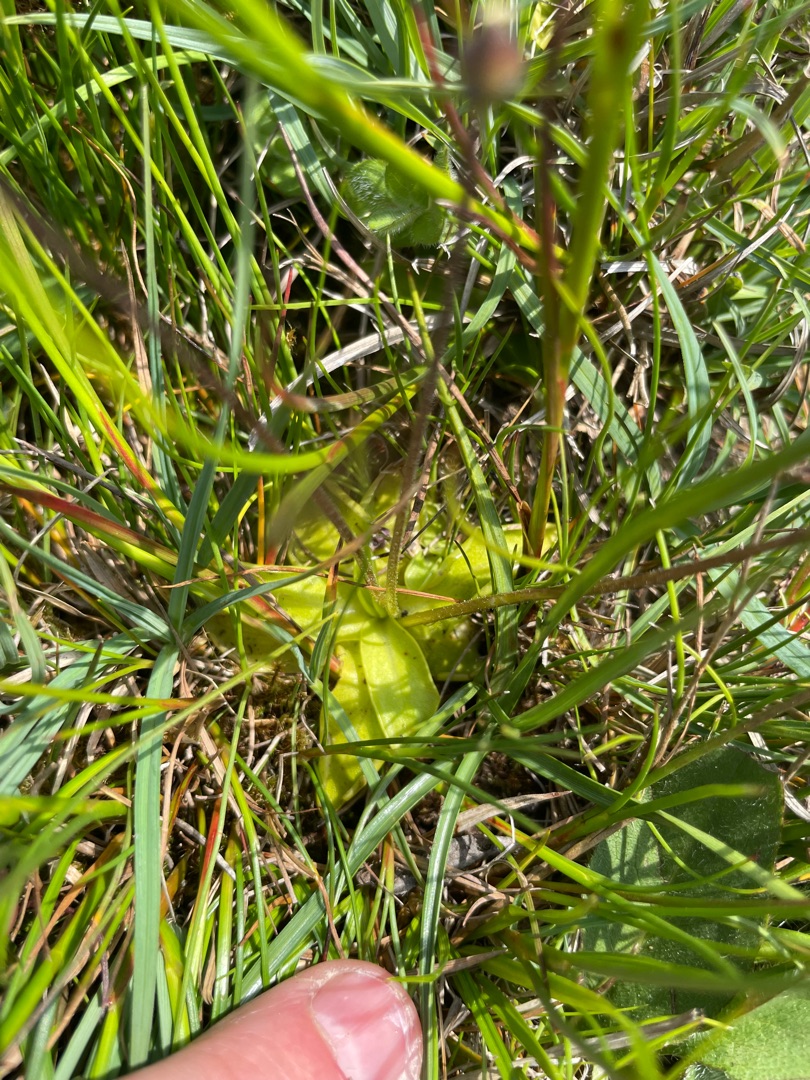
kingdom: Plantae
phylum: Tracheophyta
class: Magnoliopsida
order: Lamiales
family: Lentibulariaceae
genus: Pinguicula
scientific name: Pinguicula vulgaris
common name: Vibefedt
